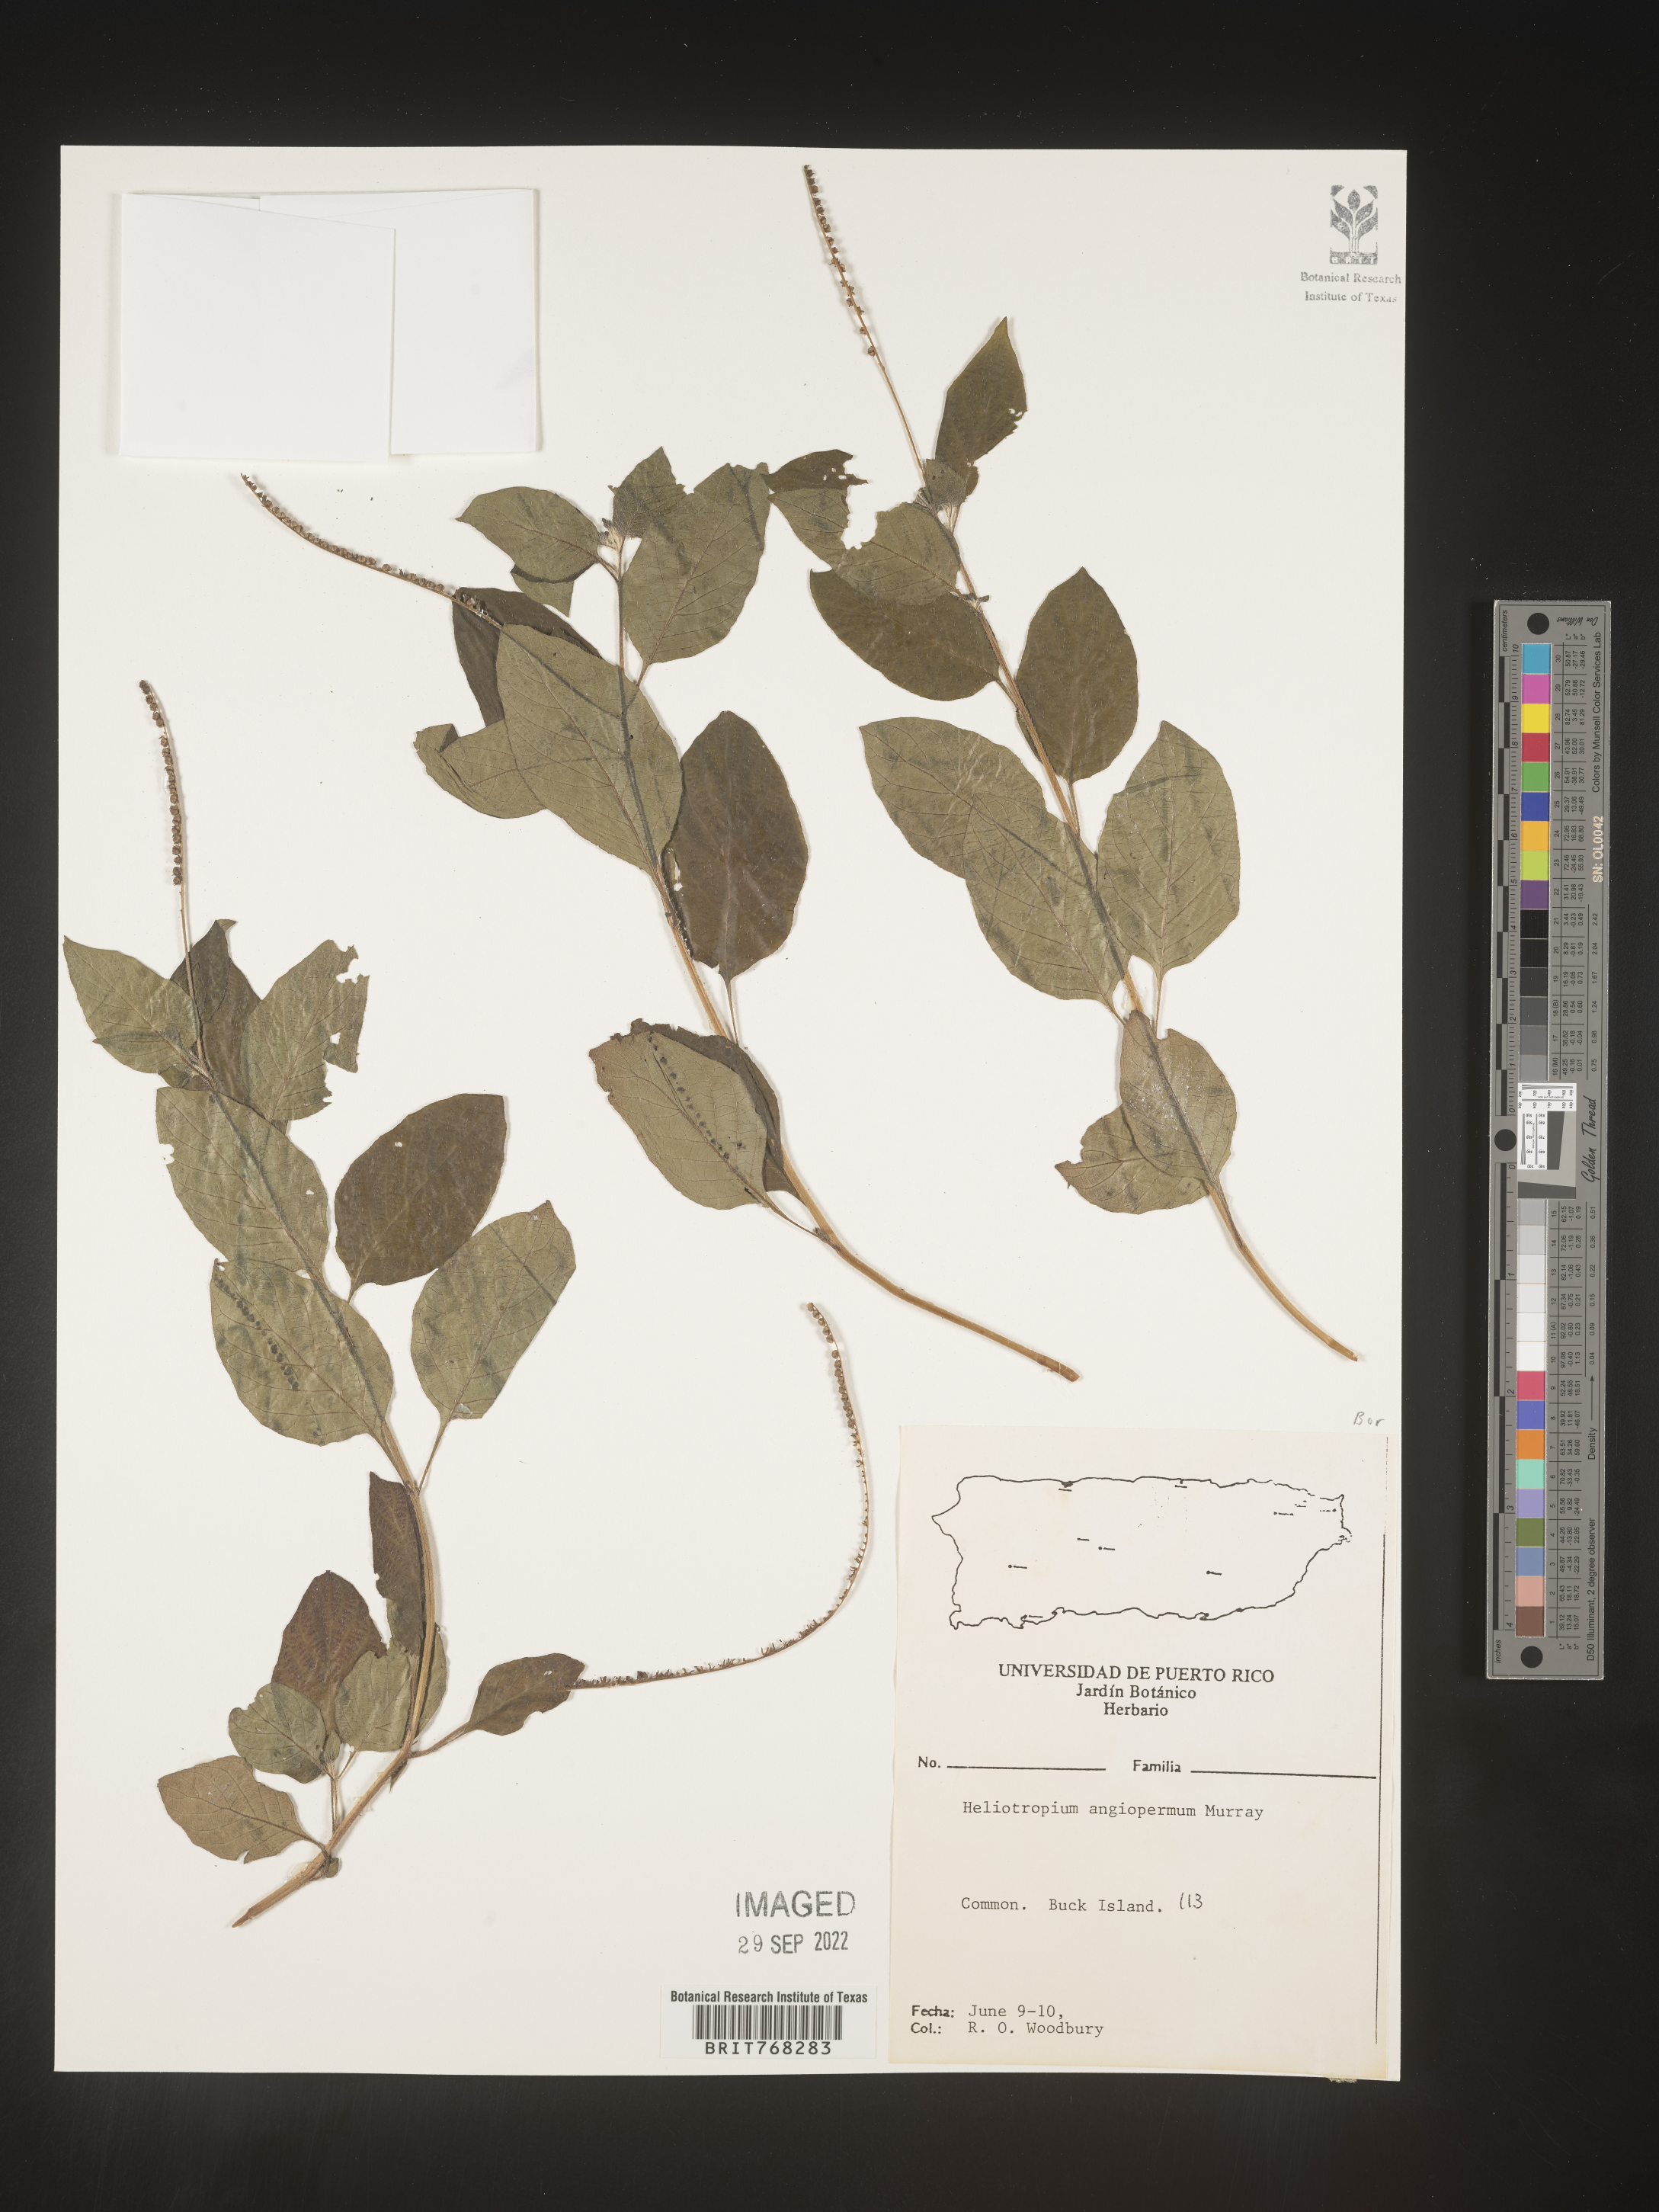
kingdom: Plantae
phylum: Tracheophyta
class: Magnoliopsida
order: Boraginales
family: Heliotropiaceae
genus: Heliotropium
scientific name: Heliotropium
